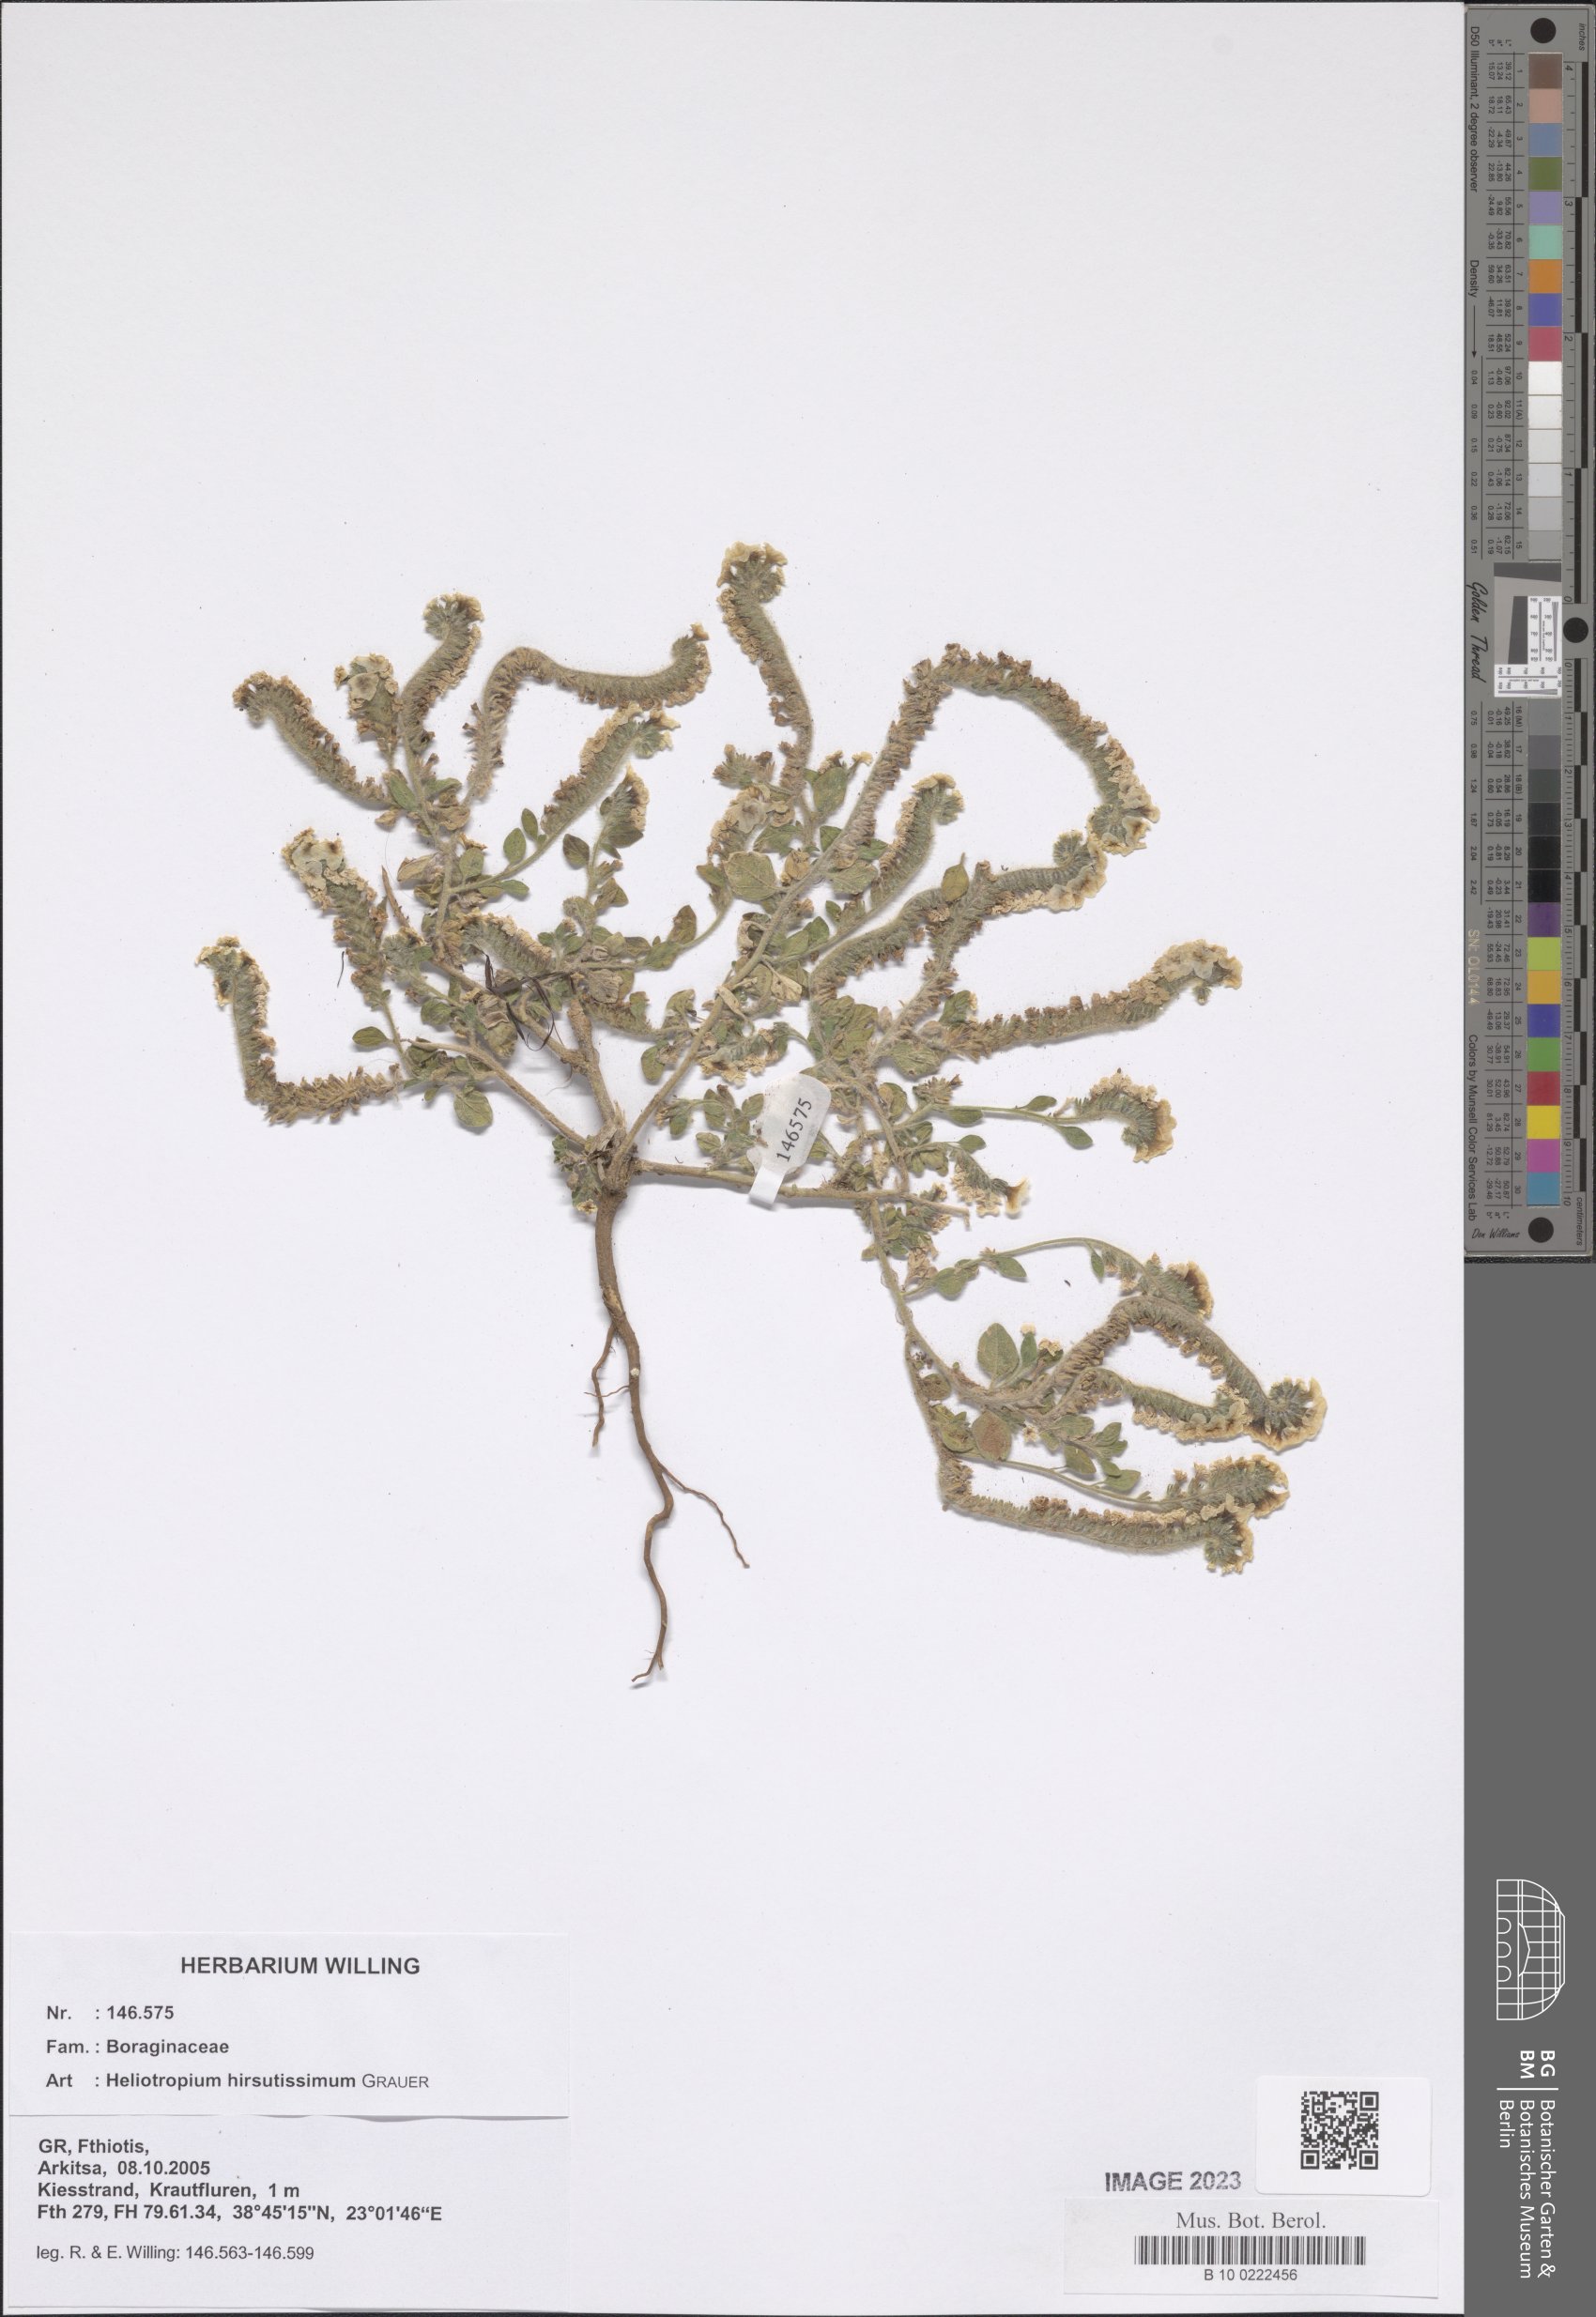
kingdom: Plantae
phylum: Tracheophyta
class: Magnoliopsida
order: Boraginales
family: Heliotropiaceae
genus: Heliotropium
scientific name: Heliotropium hirsutissimum
